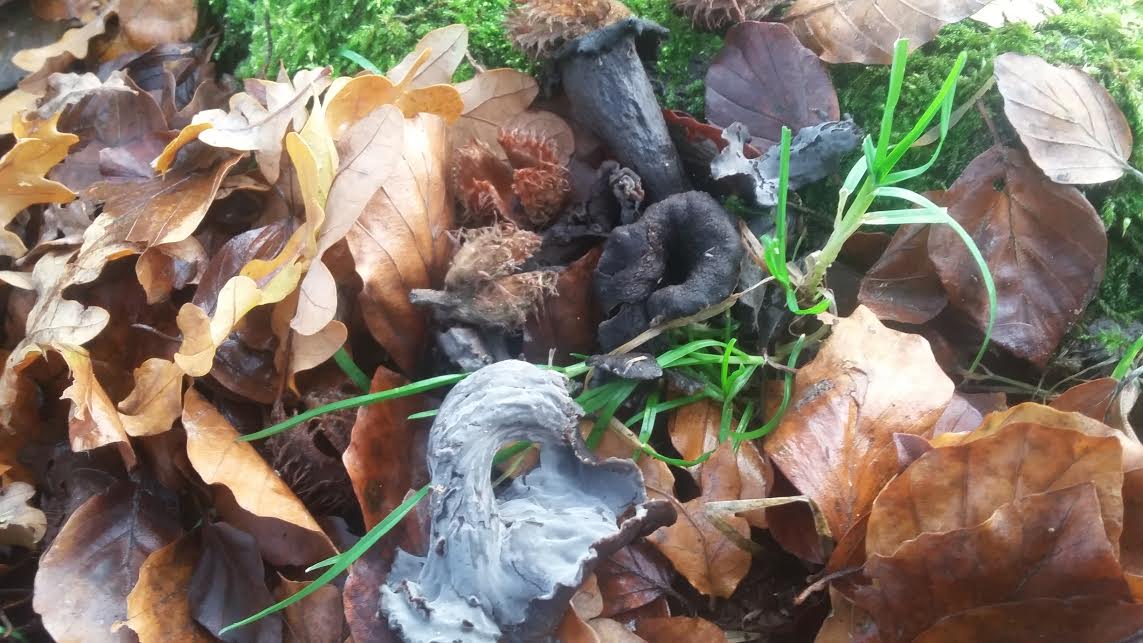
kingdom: Fungi
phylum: Basidiomycota
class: Agaricomycetes
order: Cantharellales
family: Hydnaceae
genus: Craterellus
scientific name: Craterellus cornucopioides
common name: trompetsvamp
